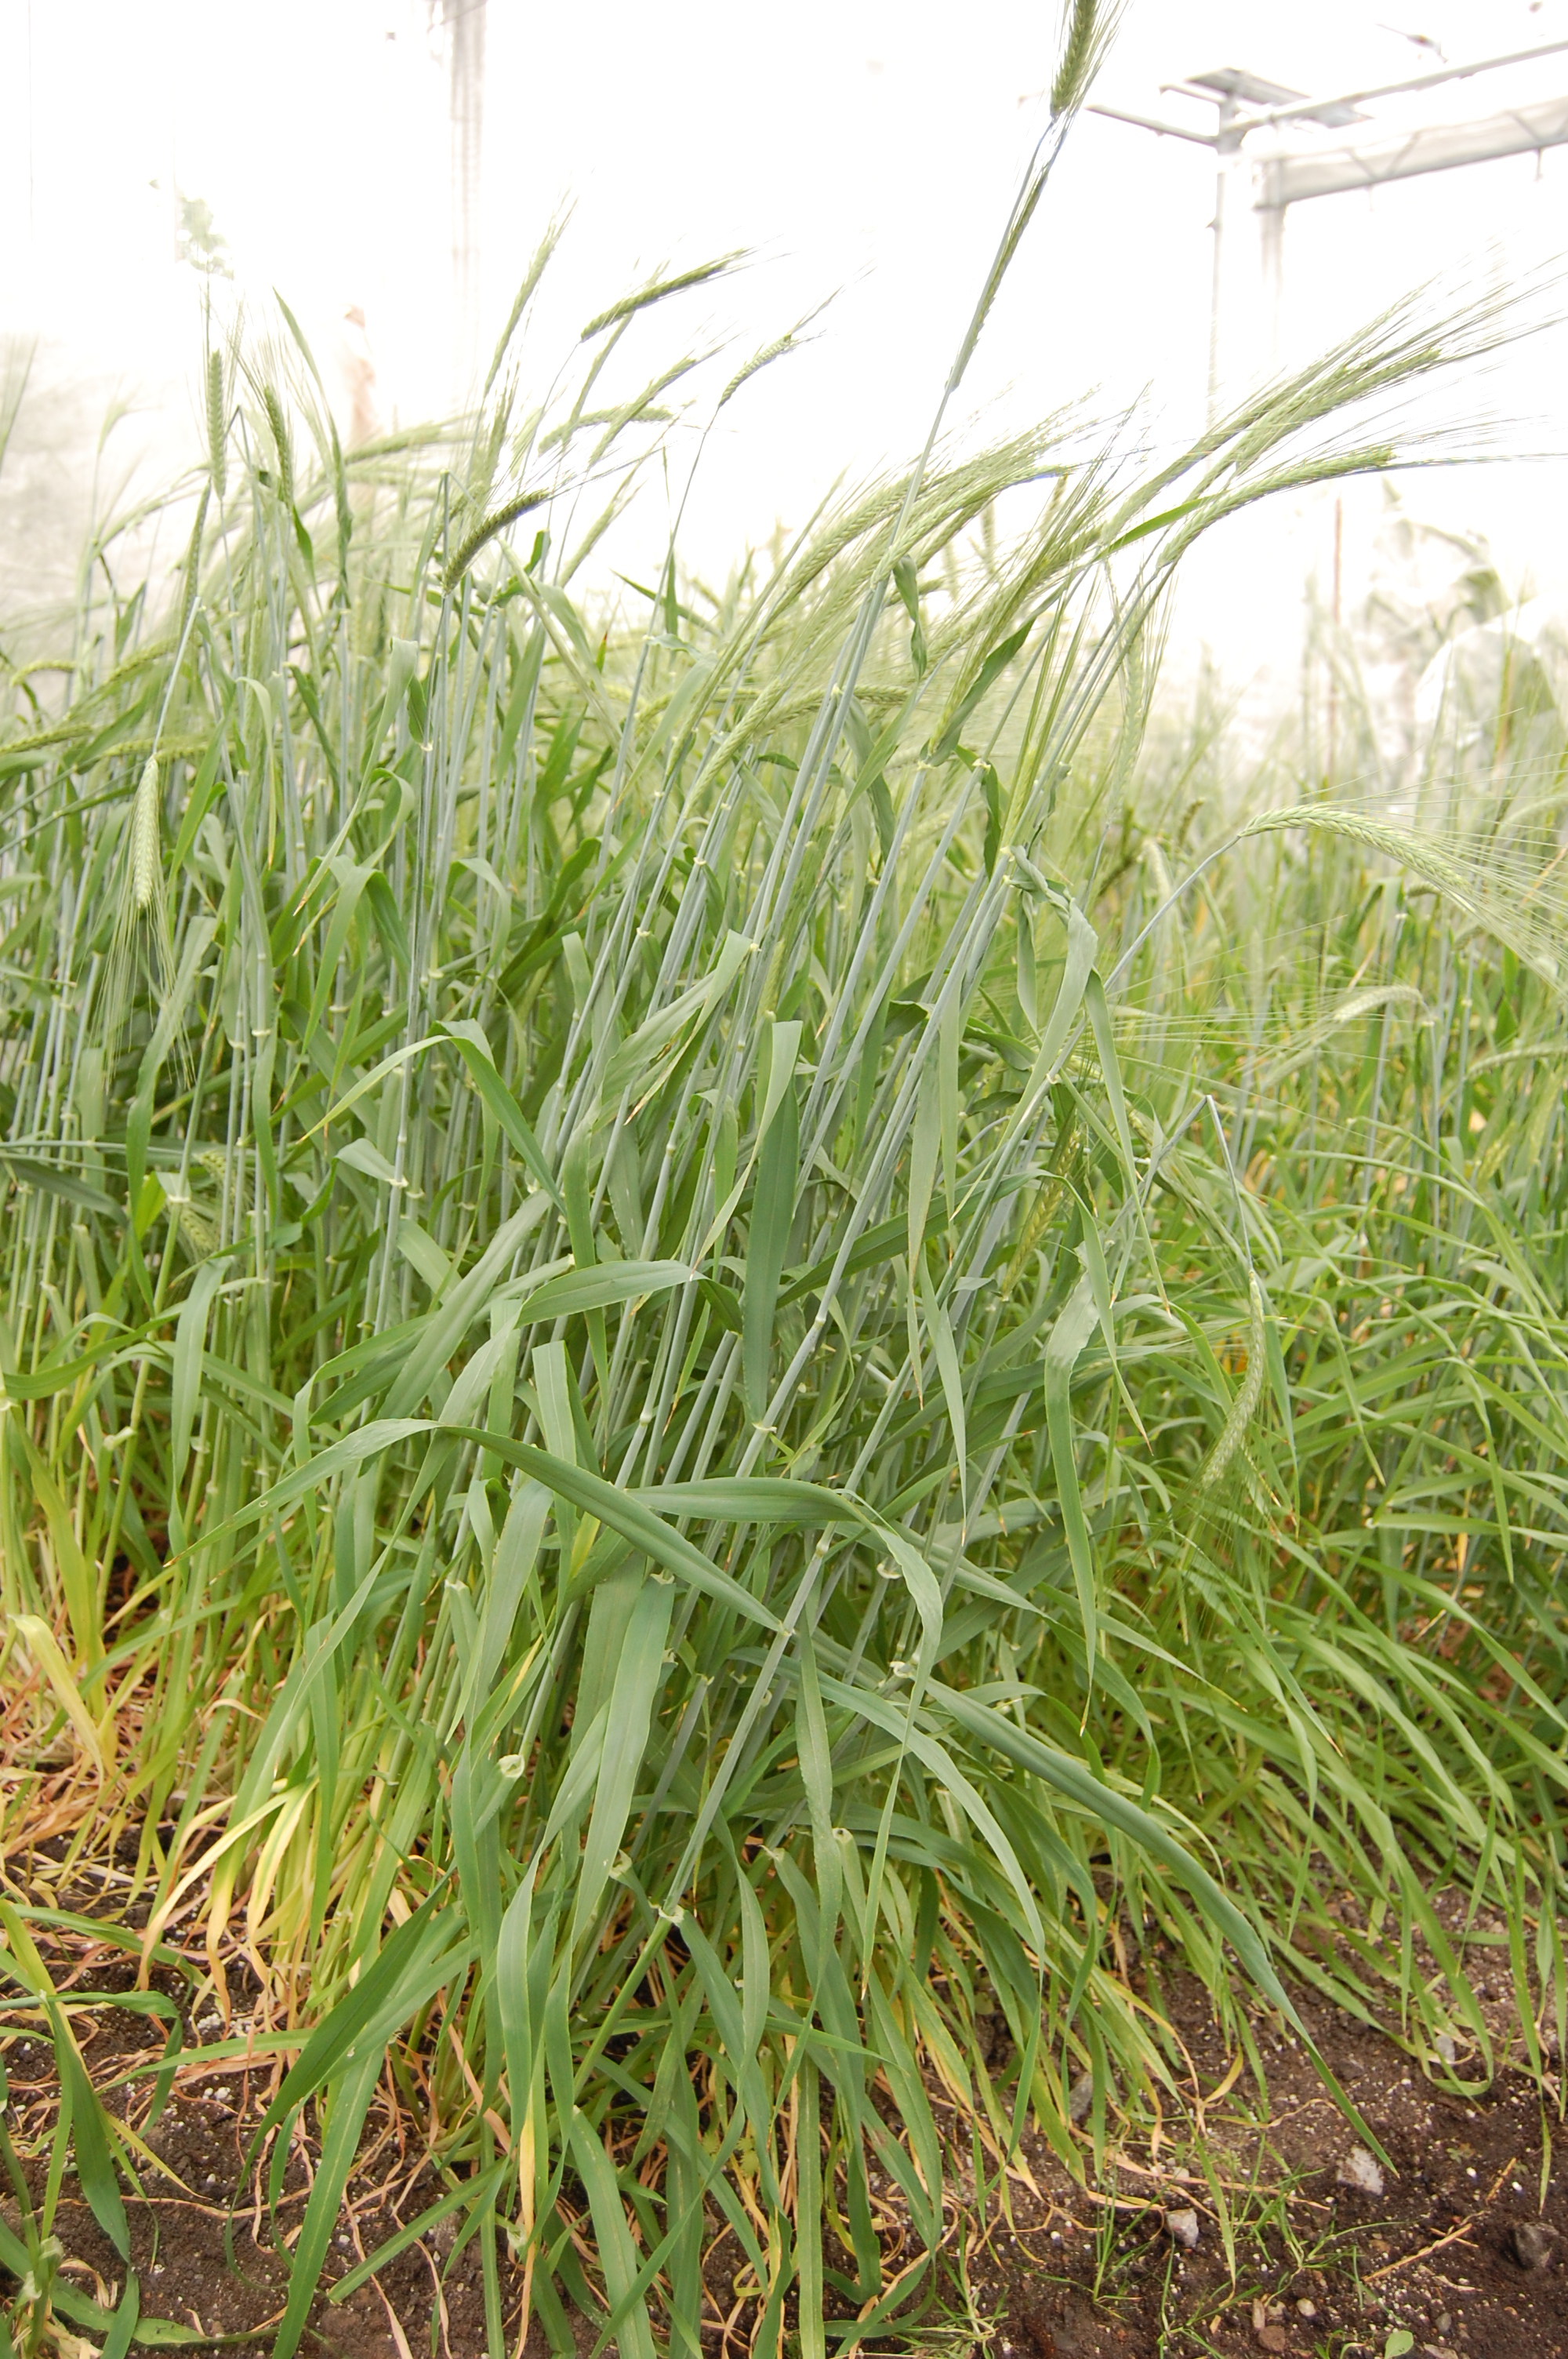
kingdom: Plantae
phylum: Tracheophyta
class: Liliopsida
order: Poales
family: Poaceae
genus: Hordeum
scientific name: Hordeum vulgare
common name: Common barley
